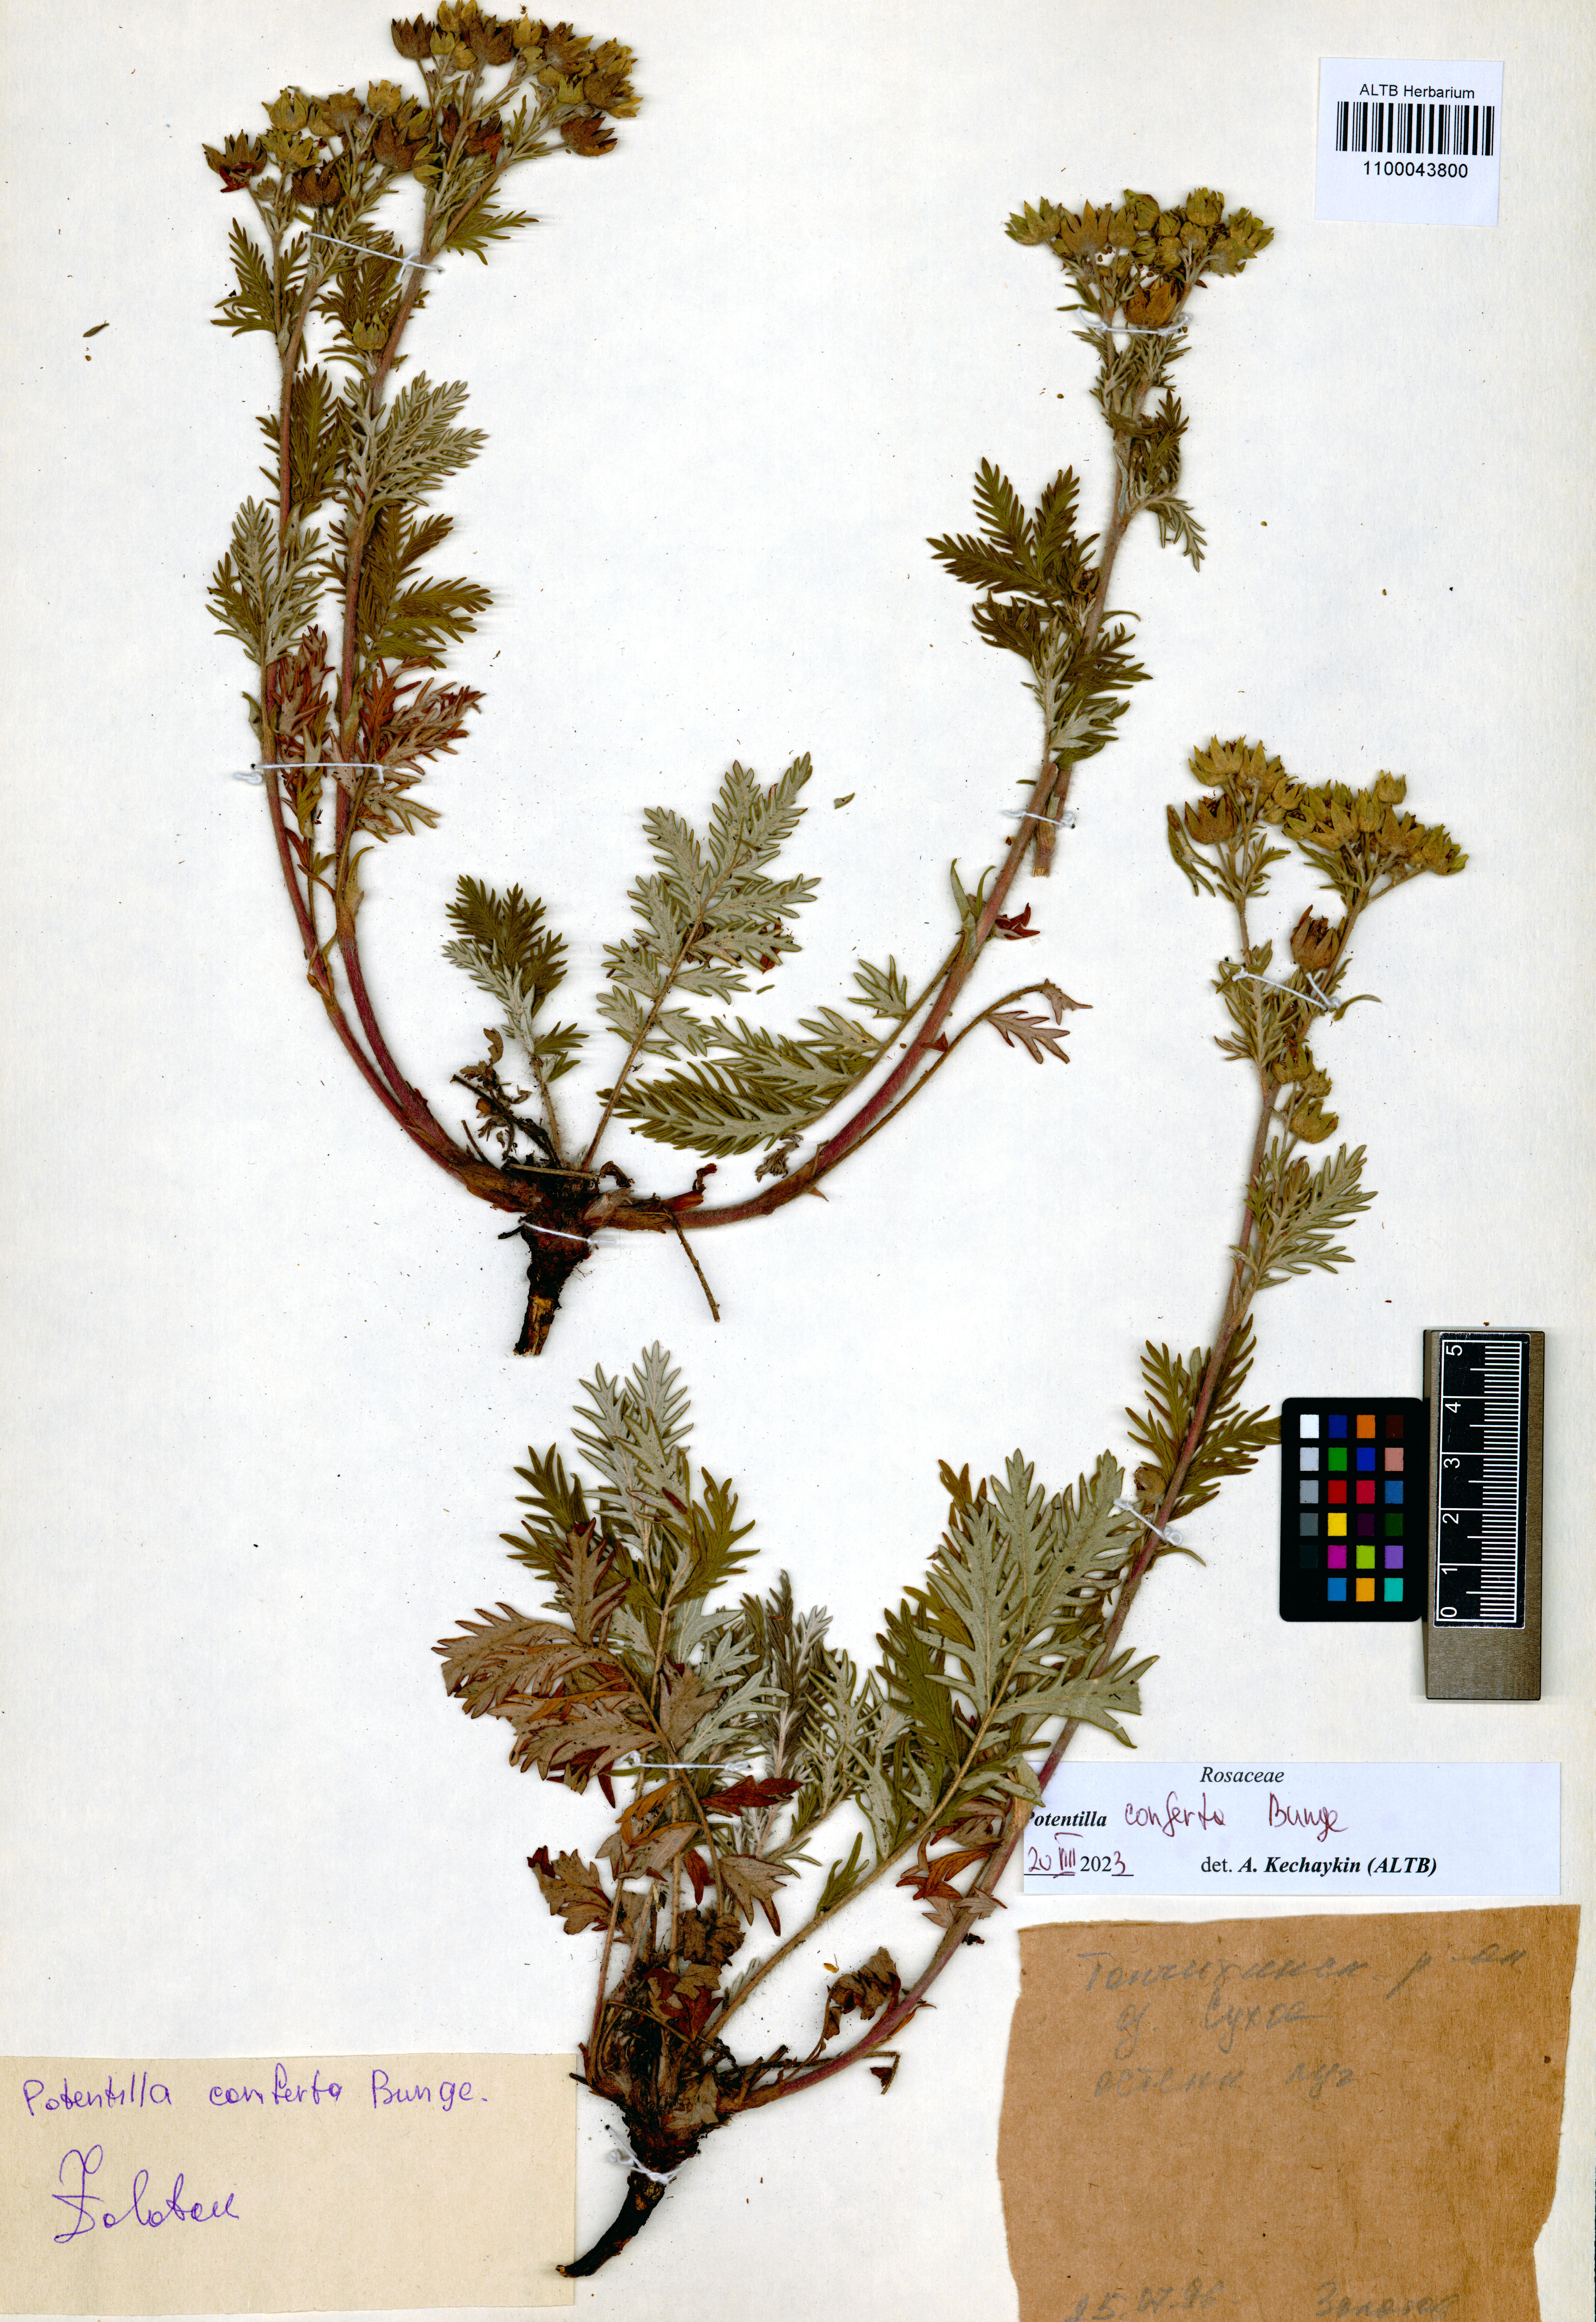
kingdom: Plantae
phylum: Tracheophyta
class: Magnoliopsida
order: Rosales
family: Rosaceae
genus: Potentilla
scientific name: Potentilla conferta
